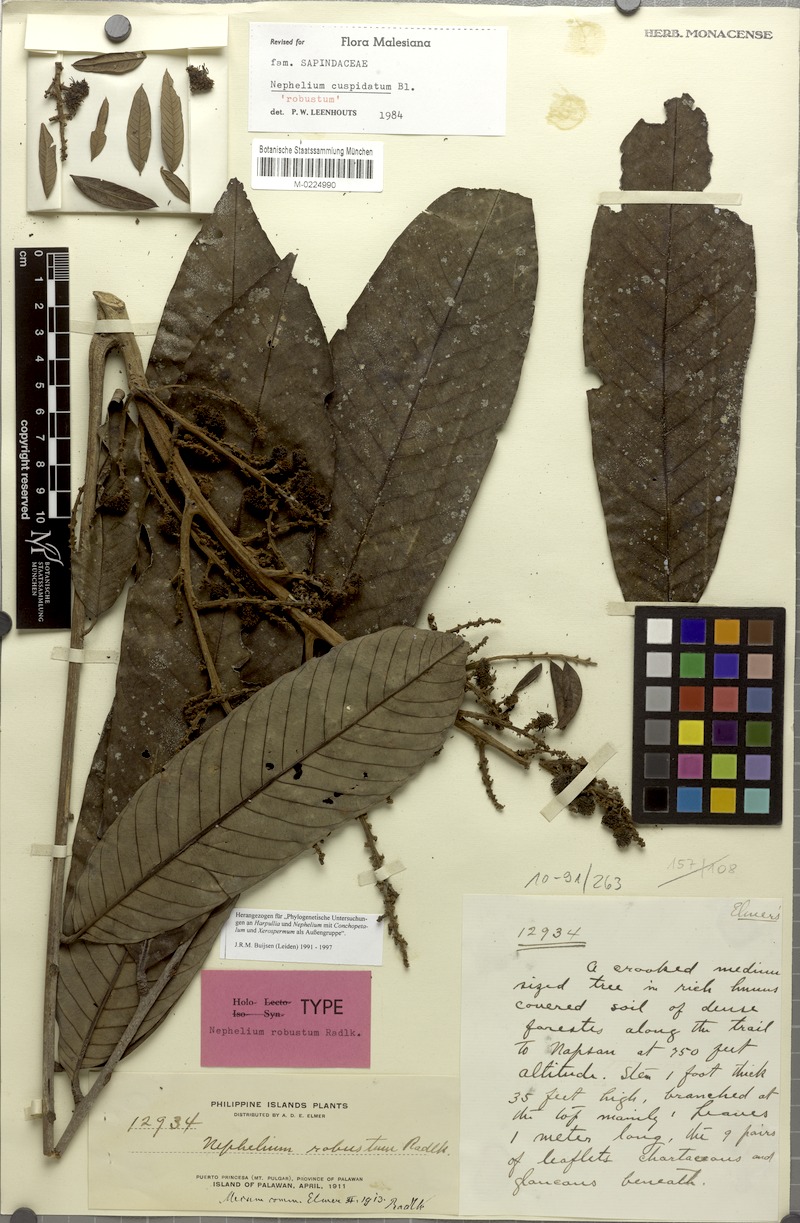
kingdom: Plantae
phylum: Tracheophyta
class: Magnoliopsida
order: Sapindales
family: Sapindaceae
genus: Nephelium
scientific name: Nephelium cuspidatum
